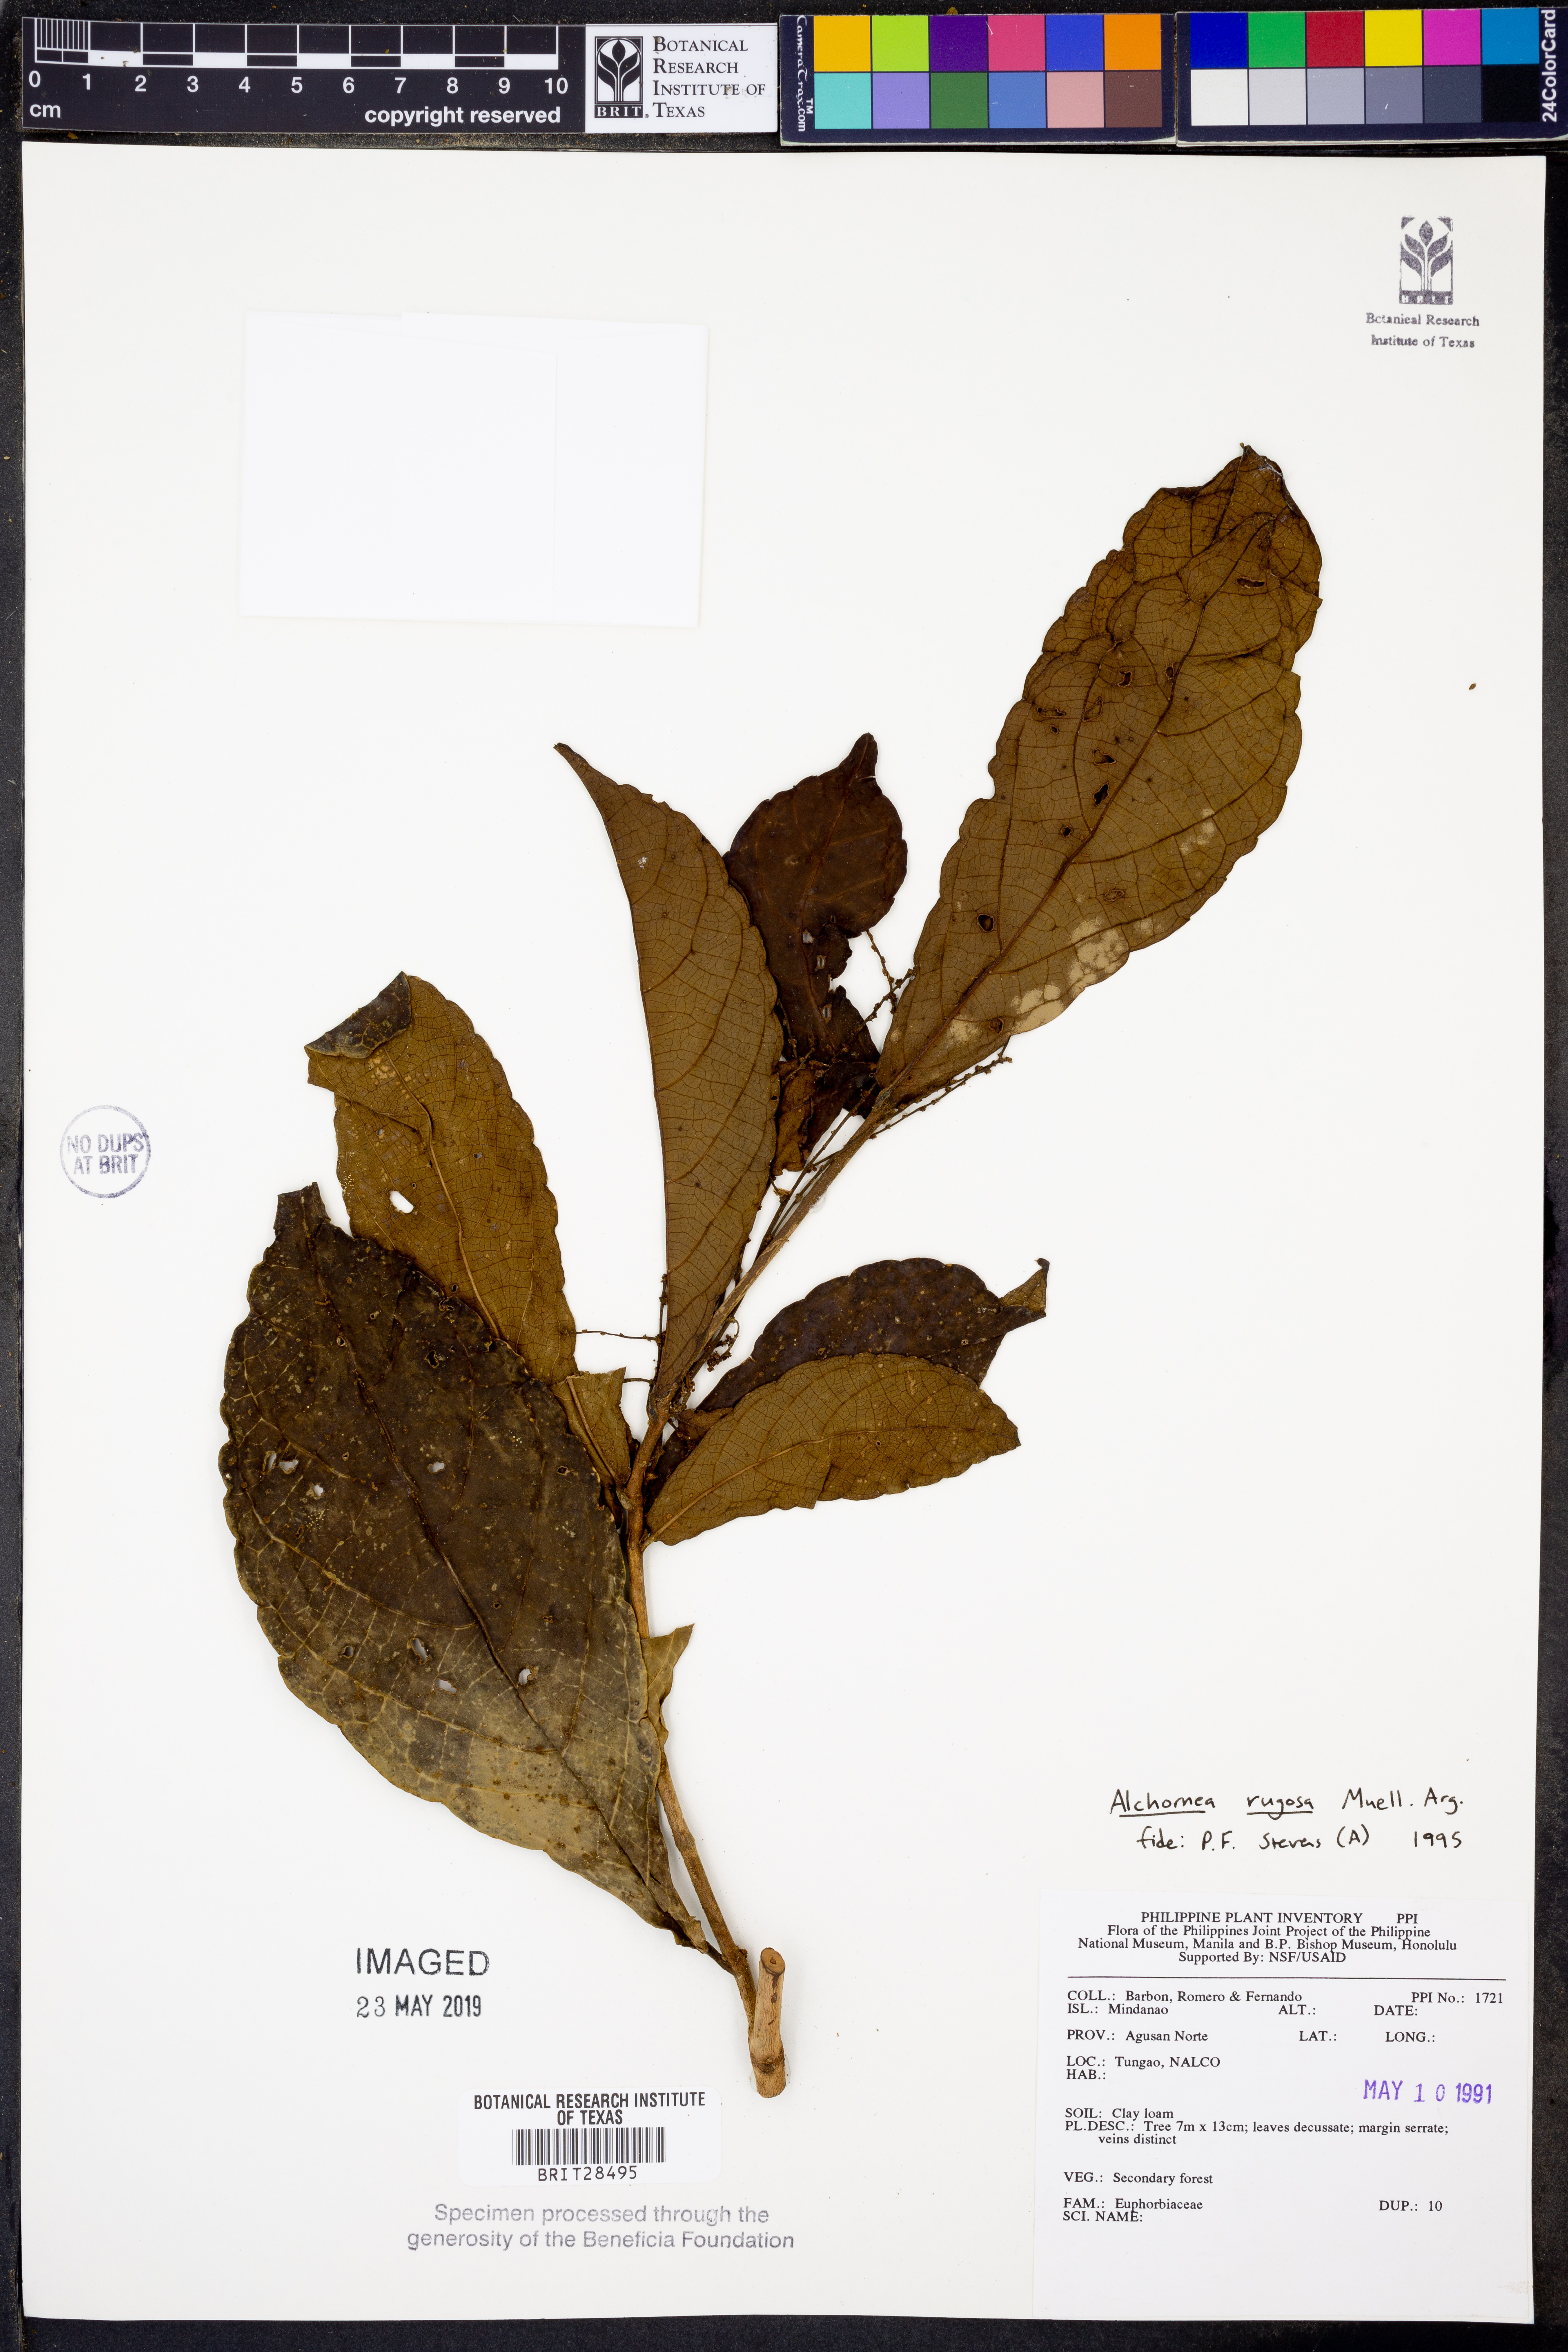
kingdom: Plantae
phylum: Tracheophyta
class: Magnoliopsida
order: Malpighiales
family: Euphorbiaceae
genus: Alchornea
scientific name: Alchornea rugosa
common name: Alchorntree
